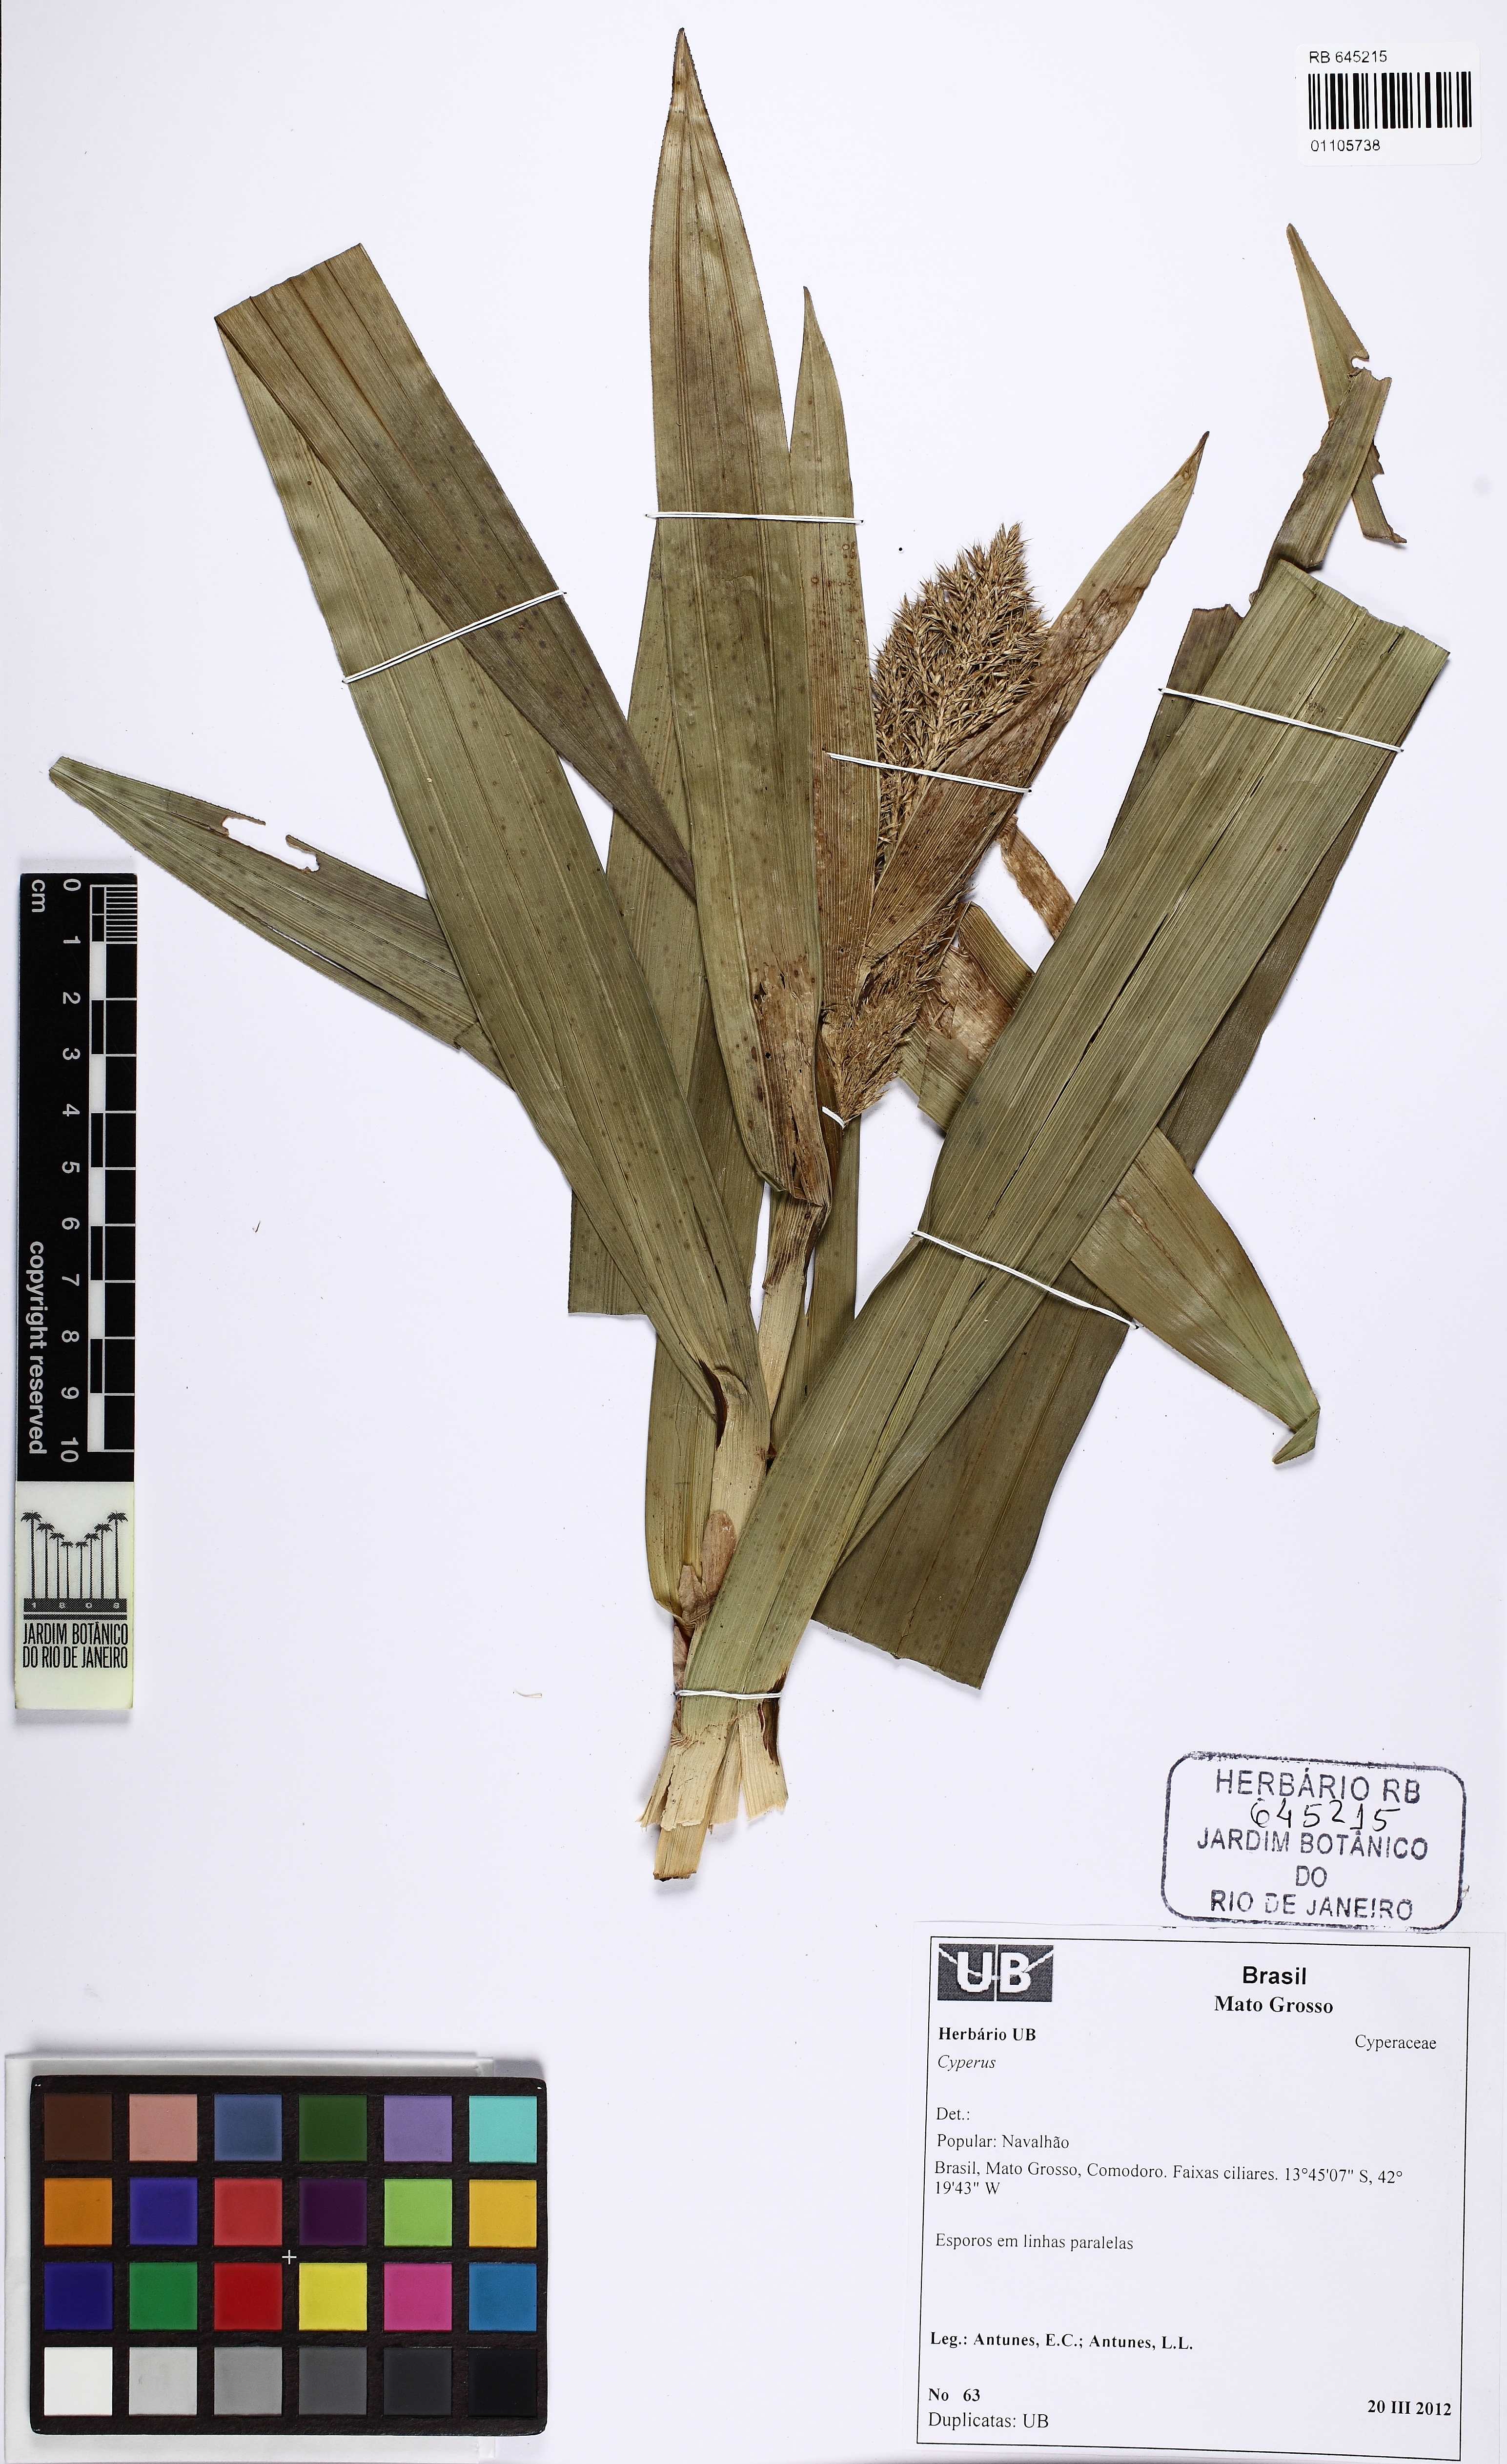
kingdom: Plantae
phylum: Tracheophyta
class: Liliopsida
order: Poales
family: Cyperaceae
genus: Scleria
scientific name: Scleria stipularis
